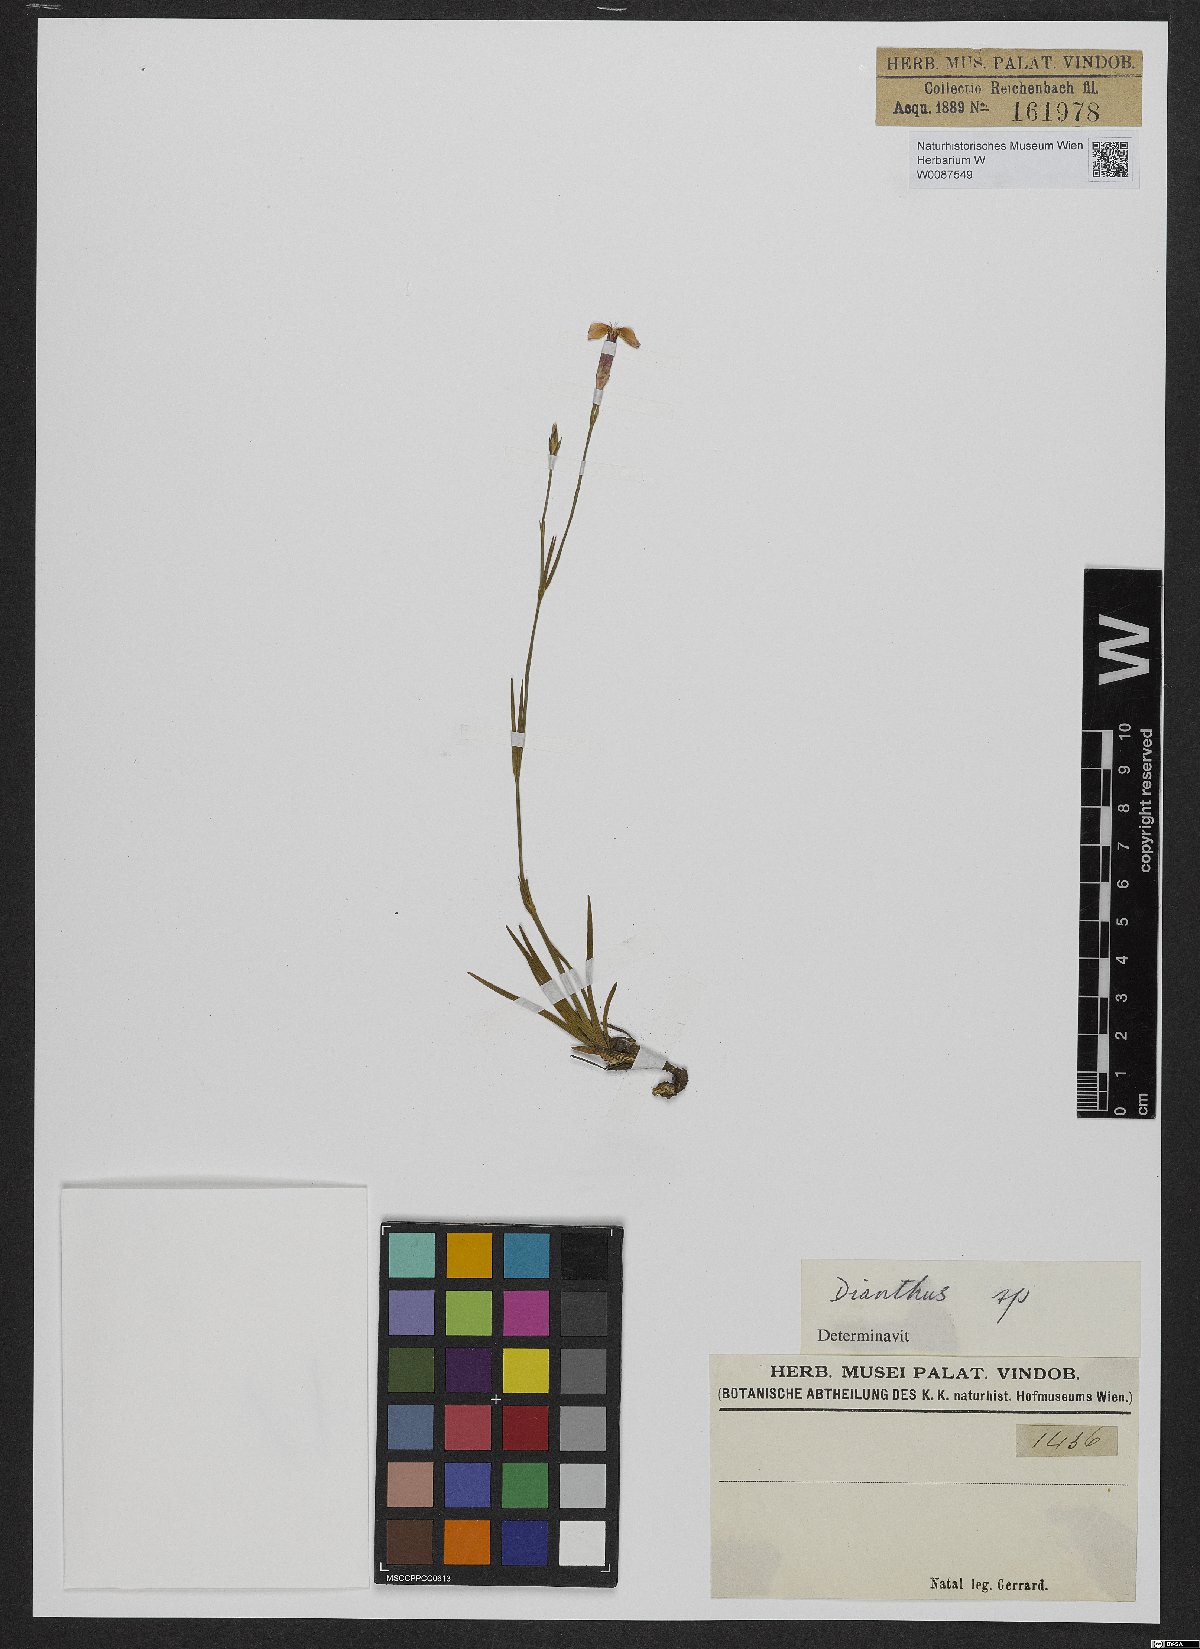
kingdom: Plantae
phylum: Tracheophyta
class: Magnoliopsida
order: Caryophyllales
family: Caryophyllaceae
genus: Dianthus
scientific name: Dianthus
